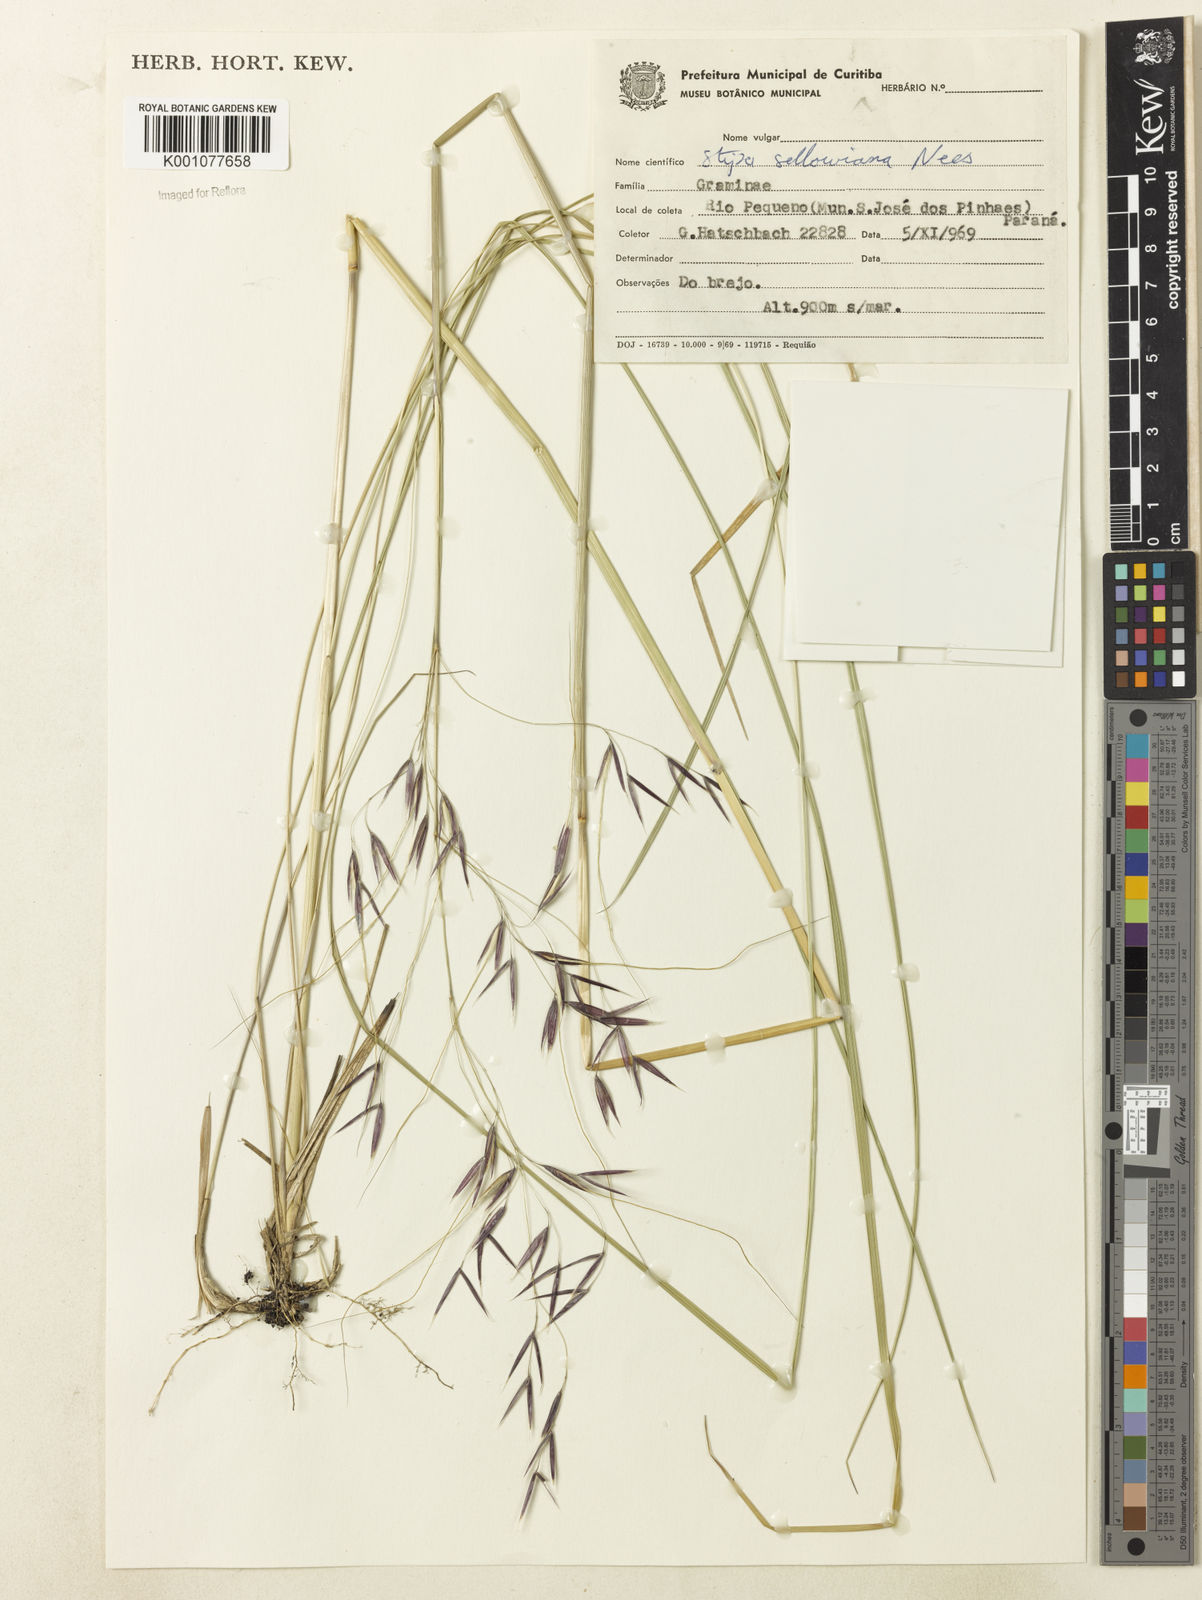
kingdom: Plantae
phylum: Tracheophyta
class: Liliopsida
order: Poales
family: Poaceae
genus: Nassella
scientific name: Nassella
